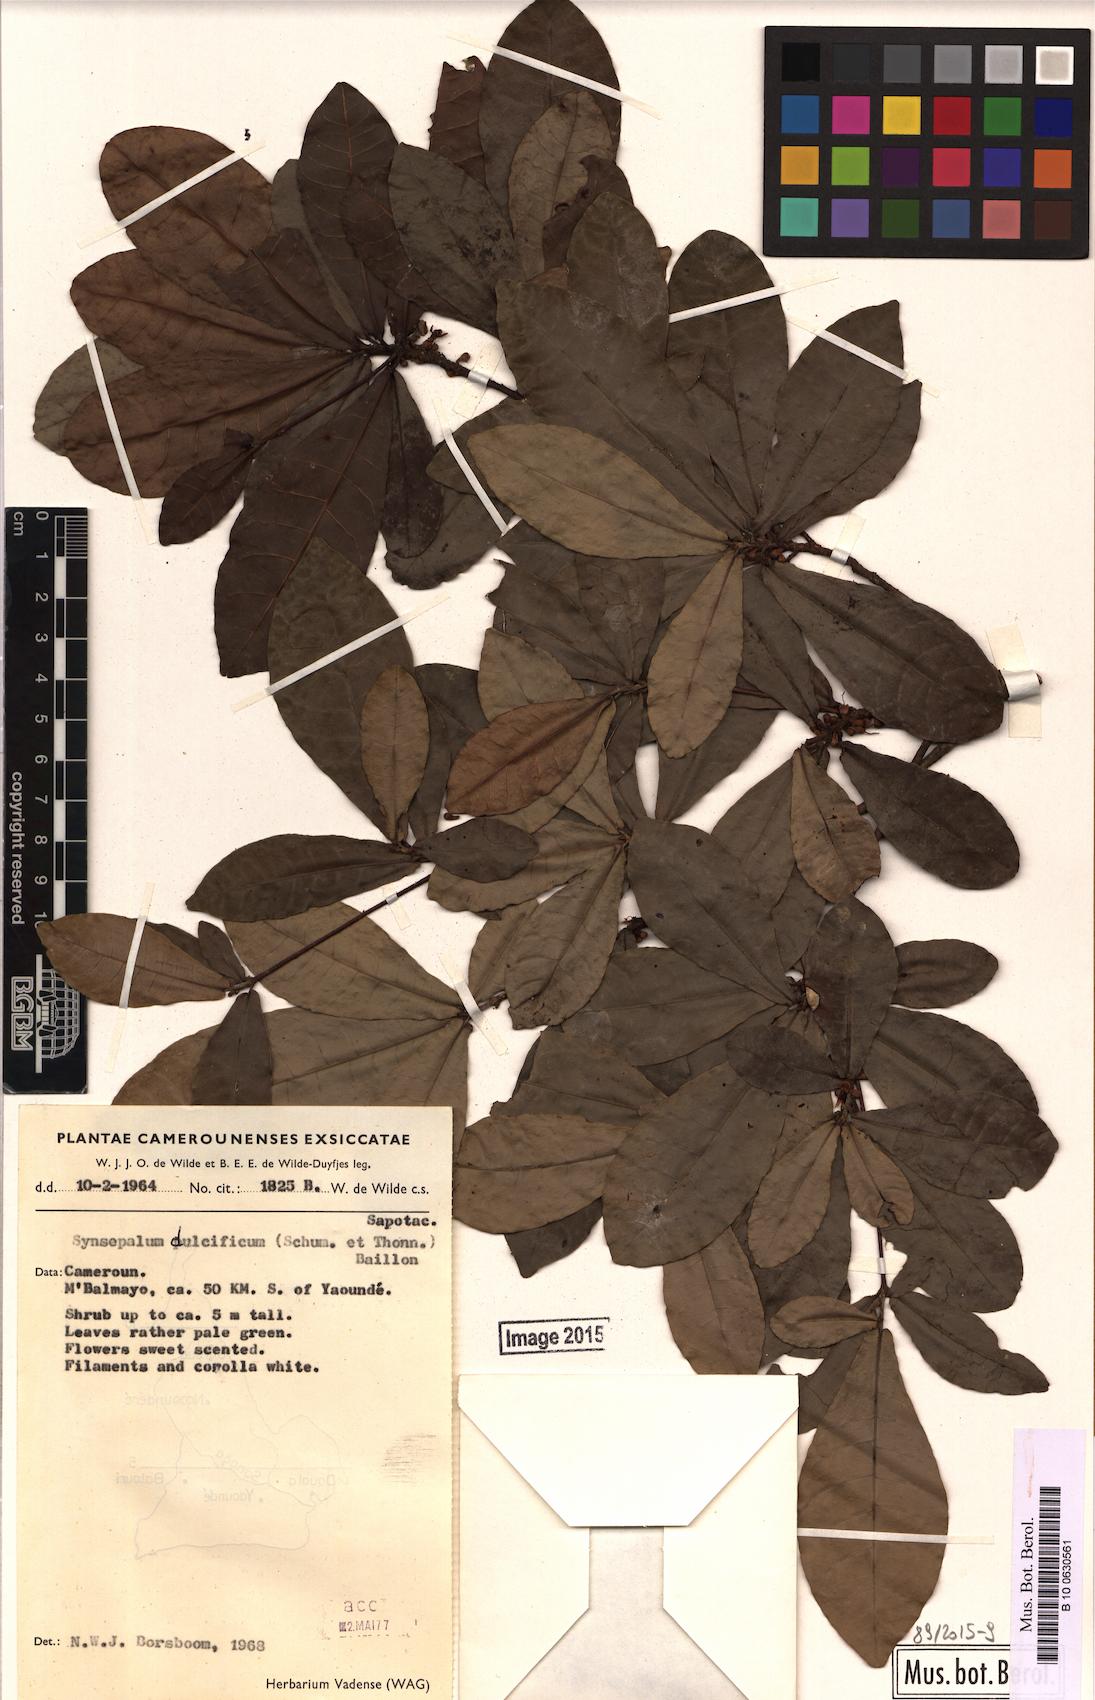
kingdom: Plantae
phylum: Tracheophyta
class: Magnoliopsida
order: Ericales
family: Sapotaceae
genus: Synsepalum
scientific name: Synsepalum dulcificum
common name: Miracle-fruit
